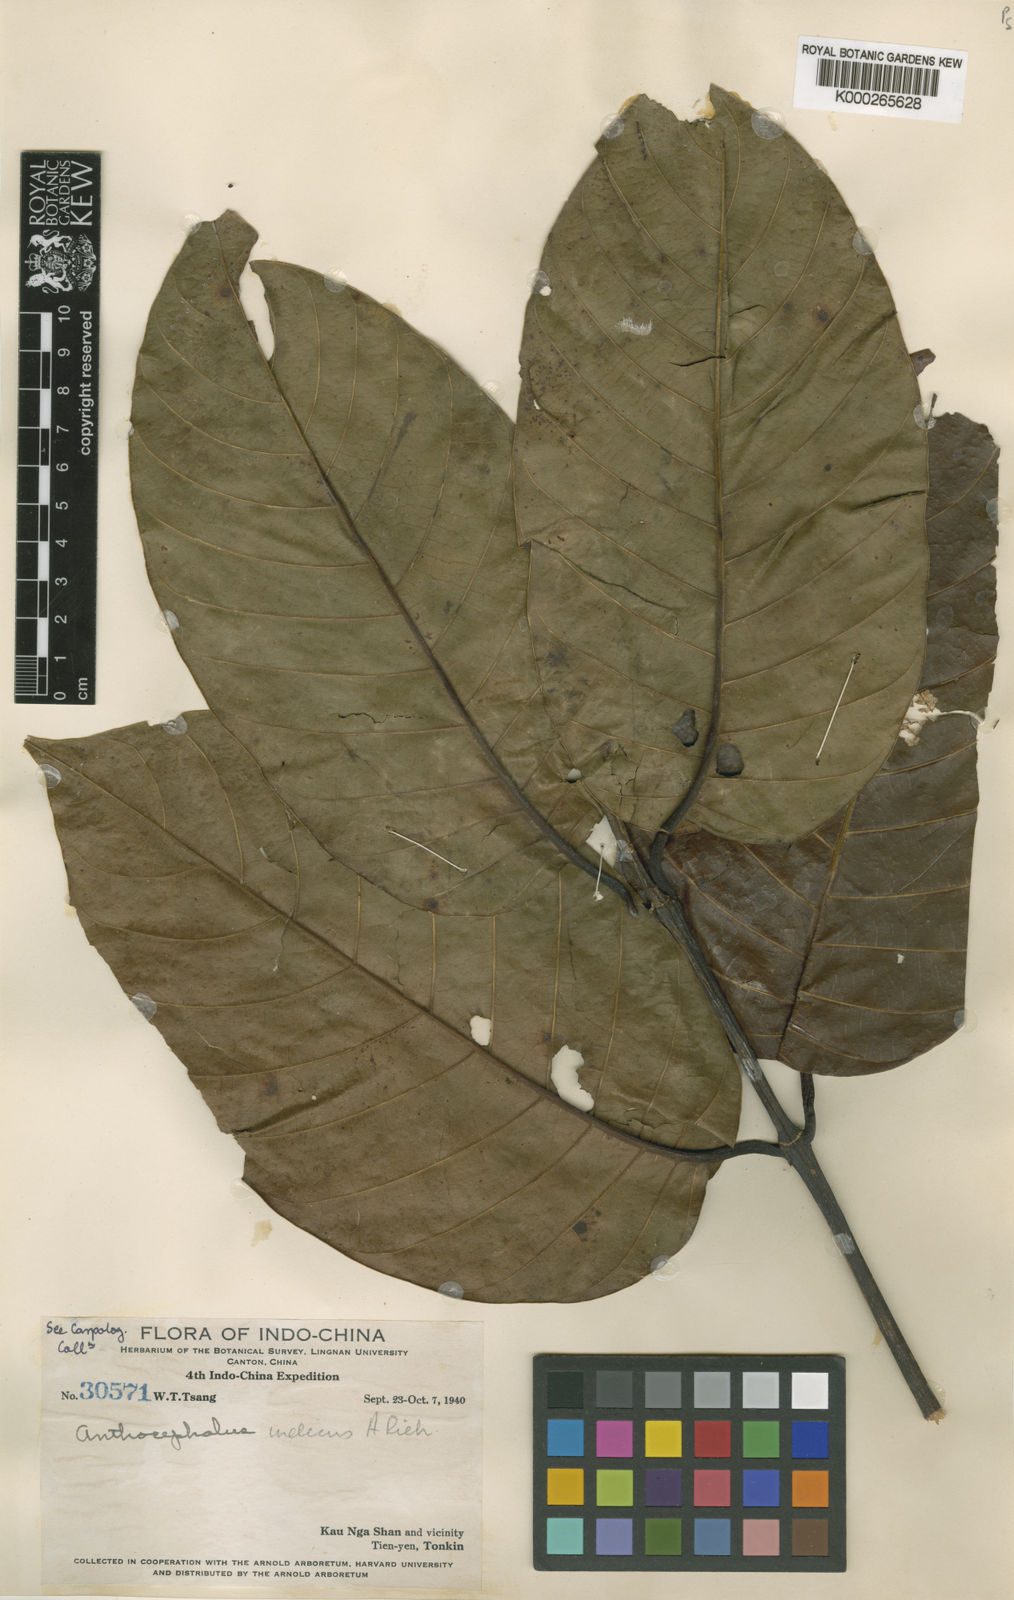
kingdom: Plantae
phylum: Tracheophyta
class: Magnoliopsida
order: Gentianales
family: Rubiaceae
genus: Neolamarckia
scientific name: Neolamarckia cadamba
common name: Leichhardt-pine
